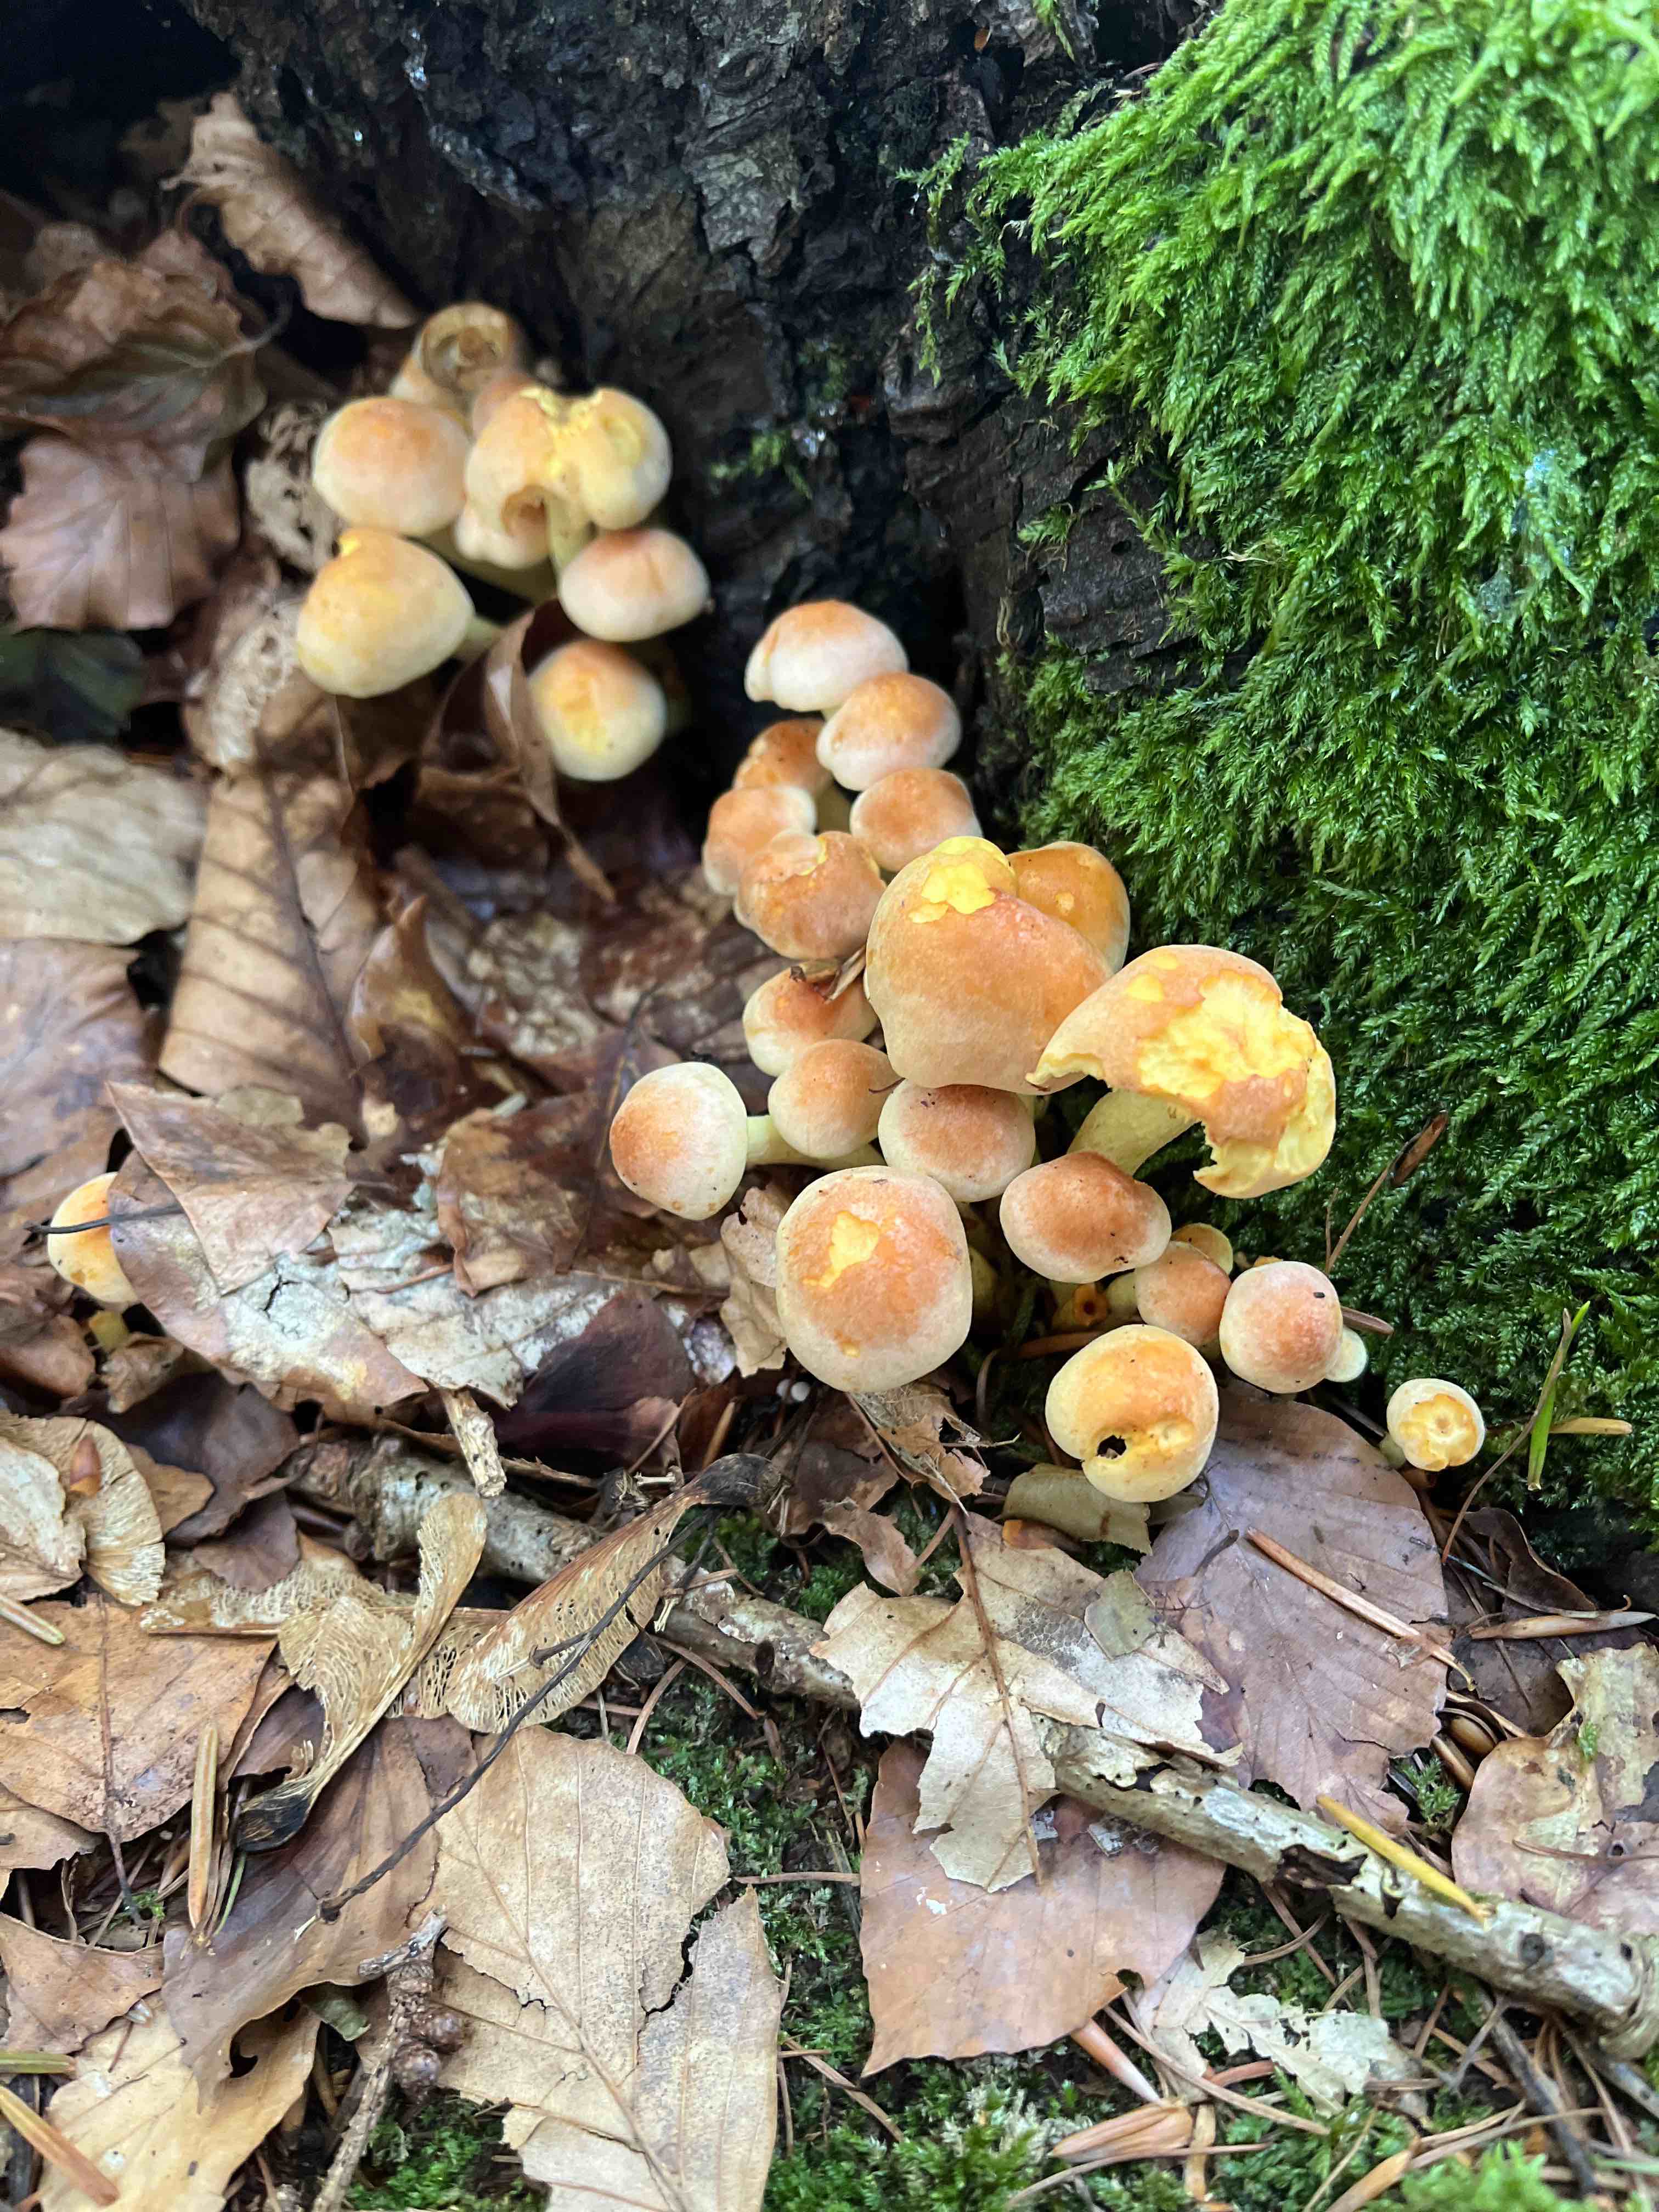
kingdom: Fungi
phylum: Basidiomycota
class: Agaricomycetes
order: Agaricales
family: Strophariaceae
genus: Hypholoma
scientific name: Hypholoma fasciculare
